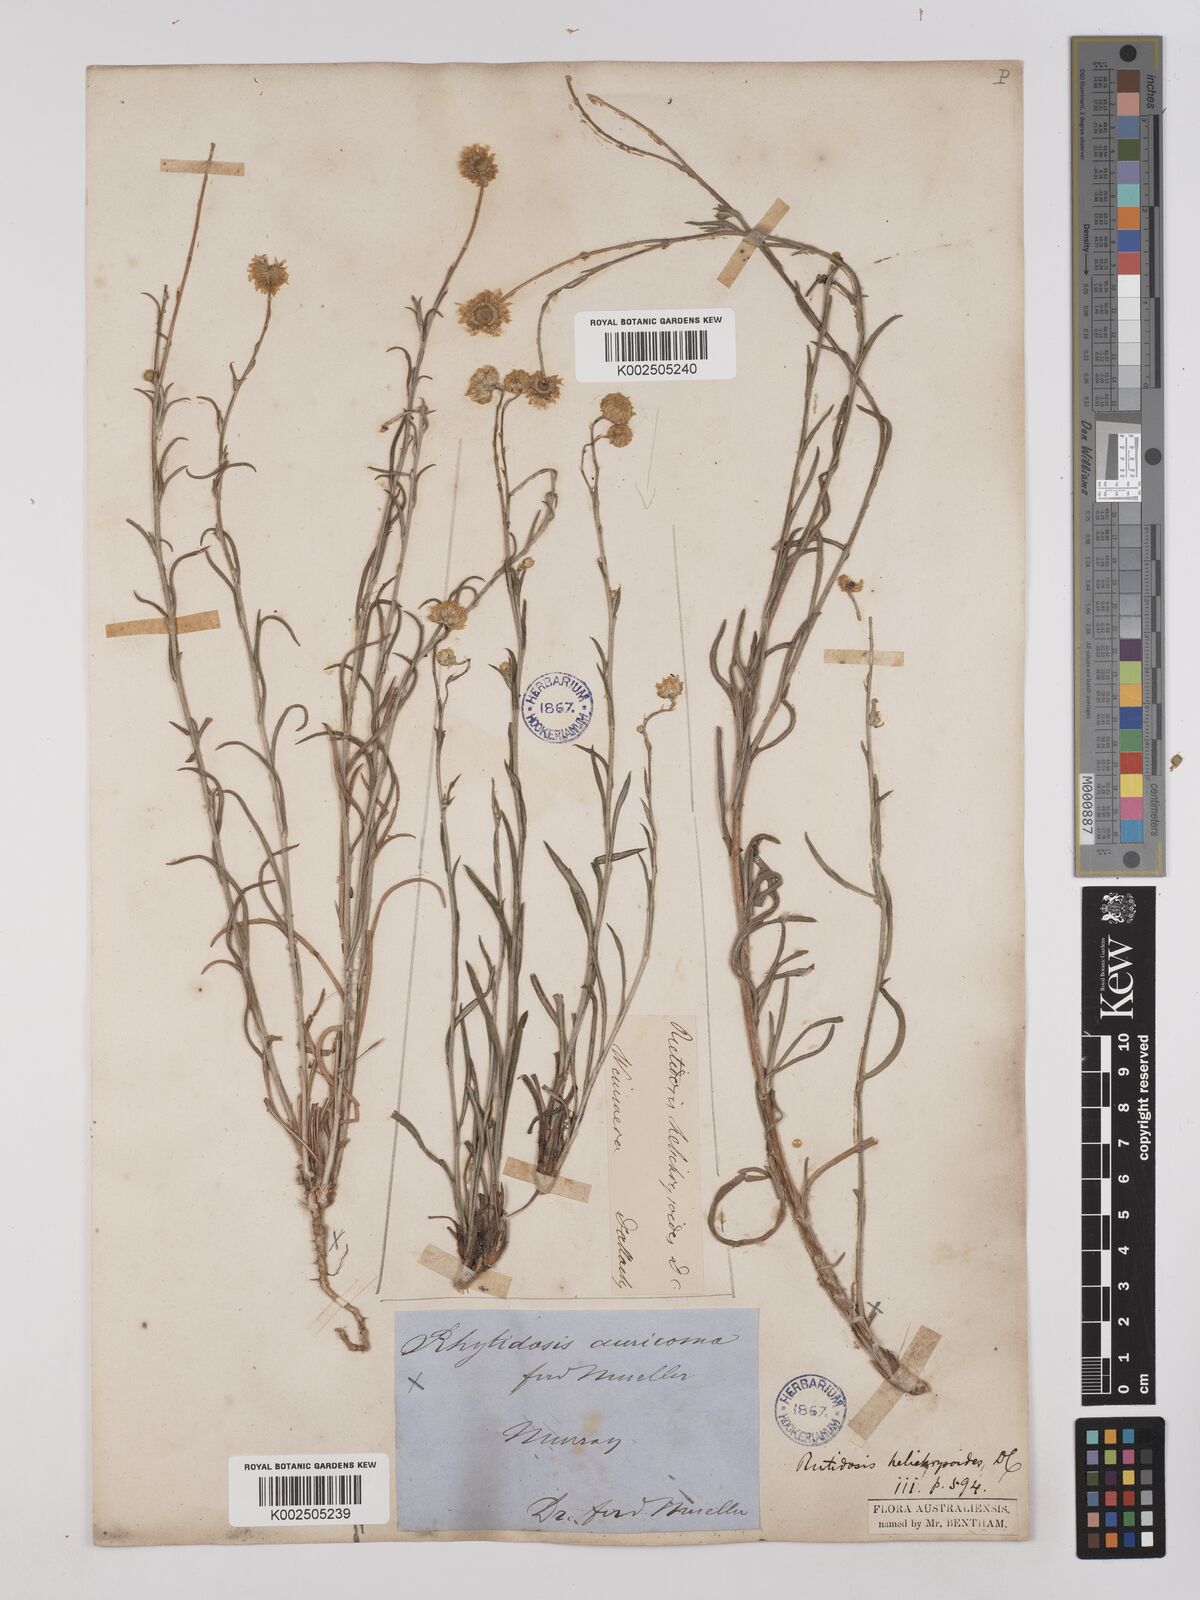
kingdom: Plantae
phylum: Tracheophyta
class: Magnoliopsida
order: Asterales
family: Asteraceae
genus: Rutidosis
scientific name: Rutidosis helichrysoides
